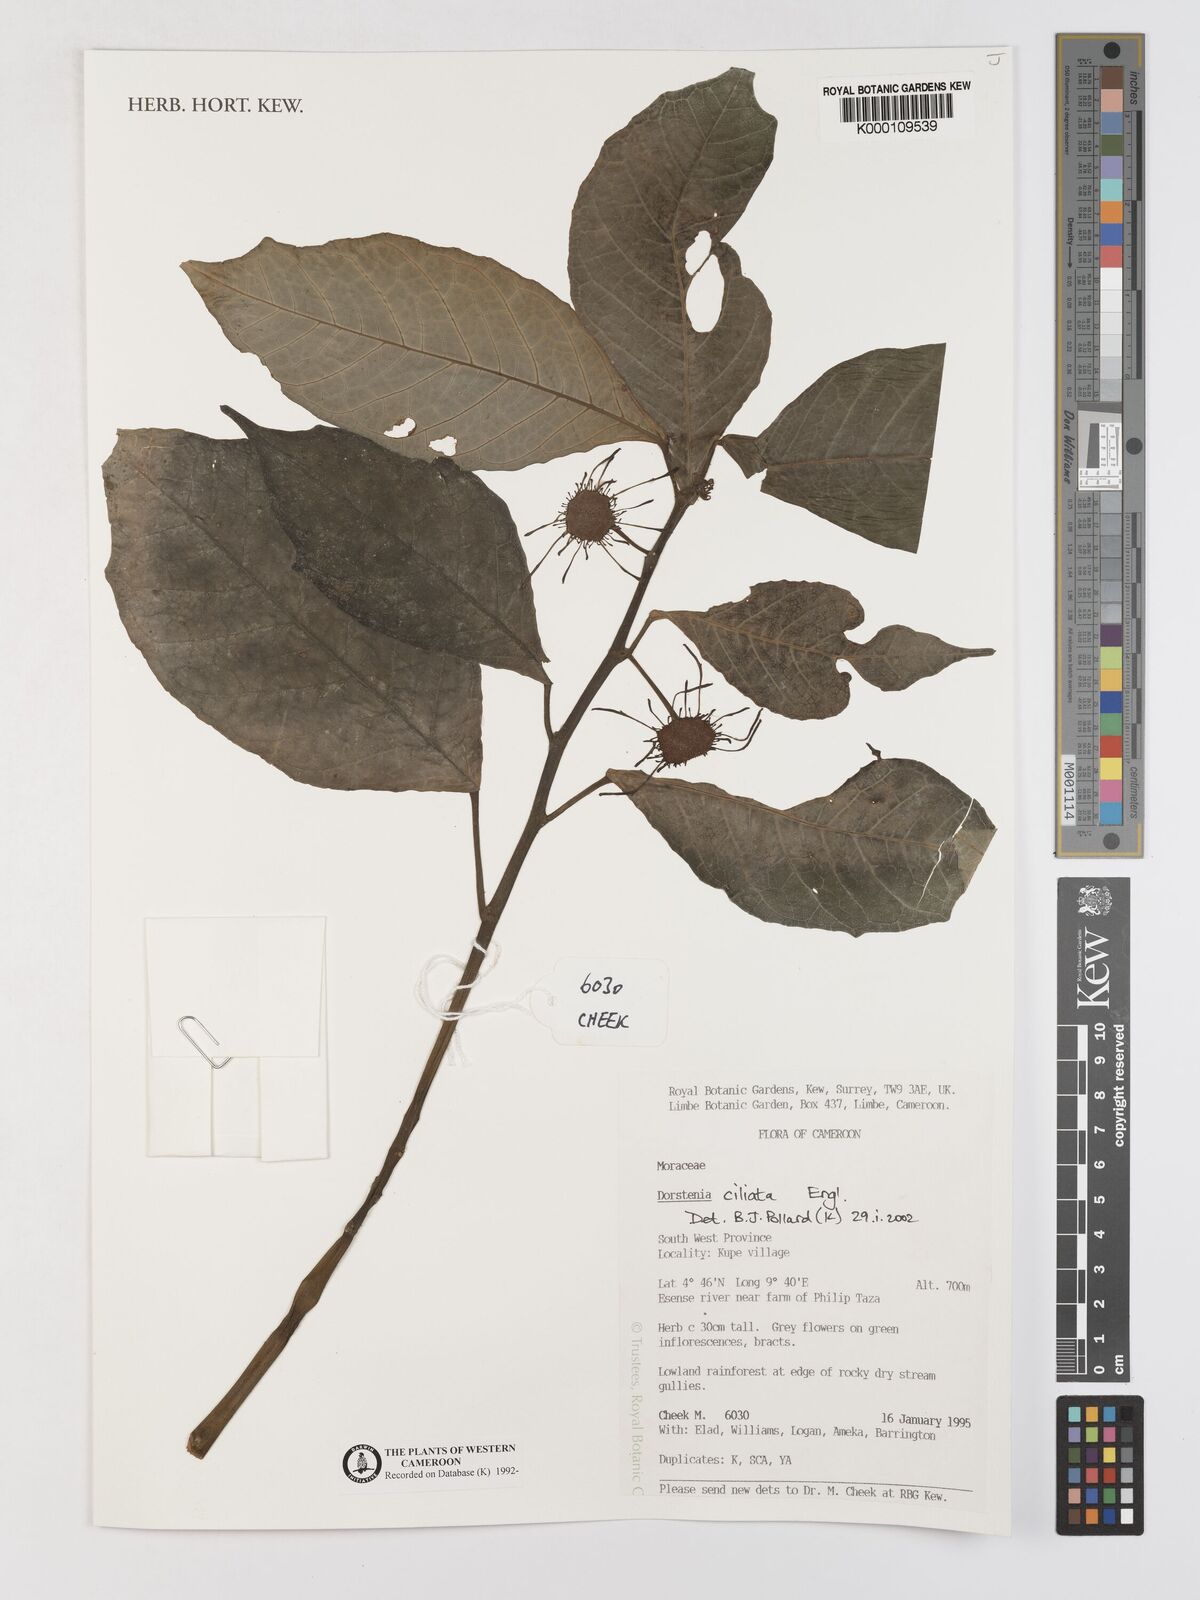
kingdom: Plantae
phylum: Tracheophyta
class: Magnoliopsida
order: Rosales
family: Moraceae
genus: Dorstenia
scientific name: Dorstenia ciliata
